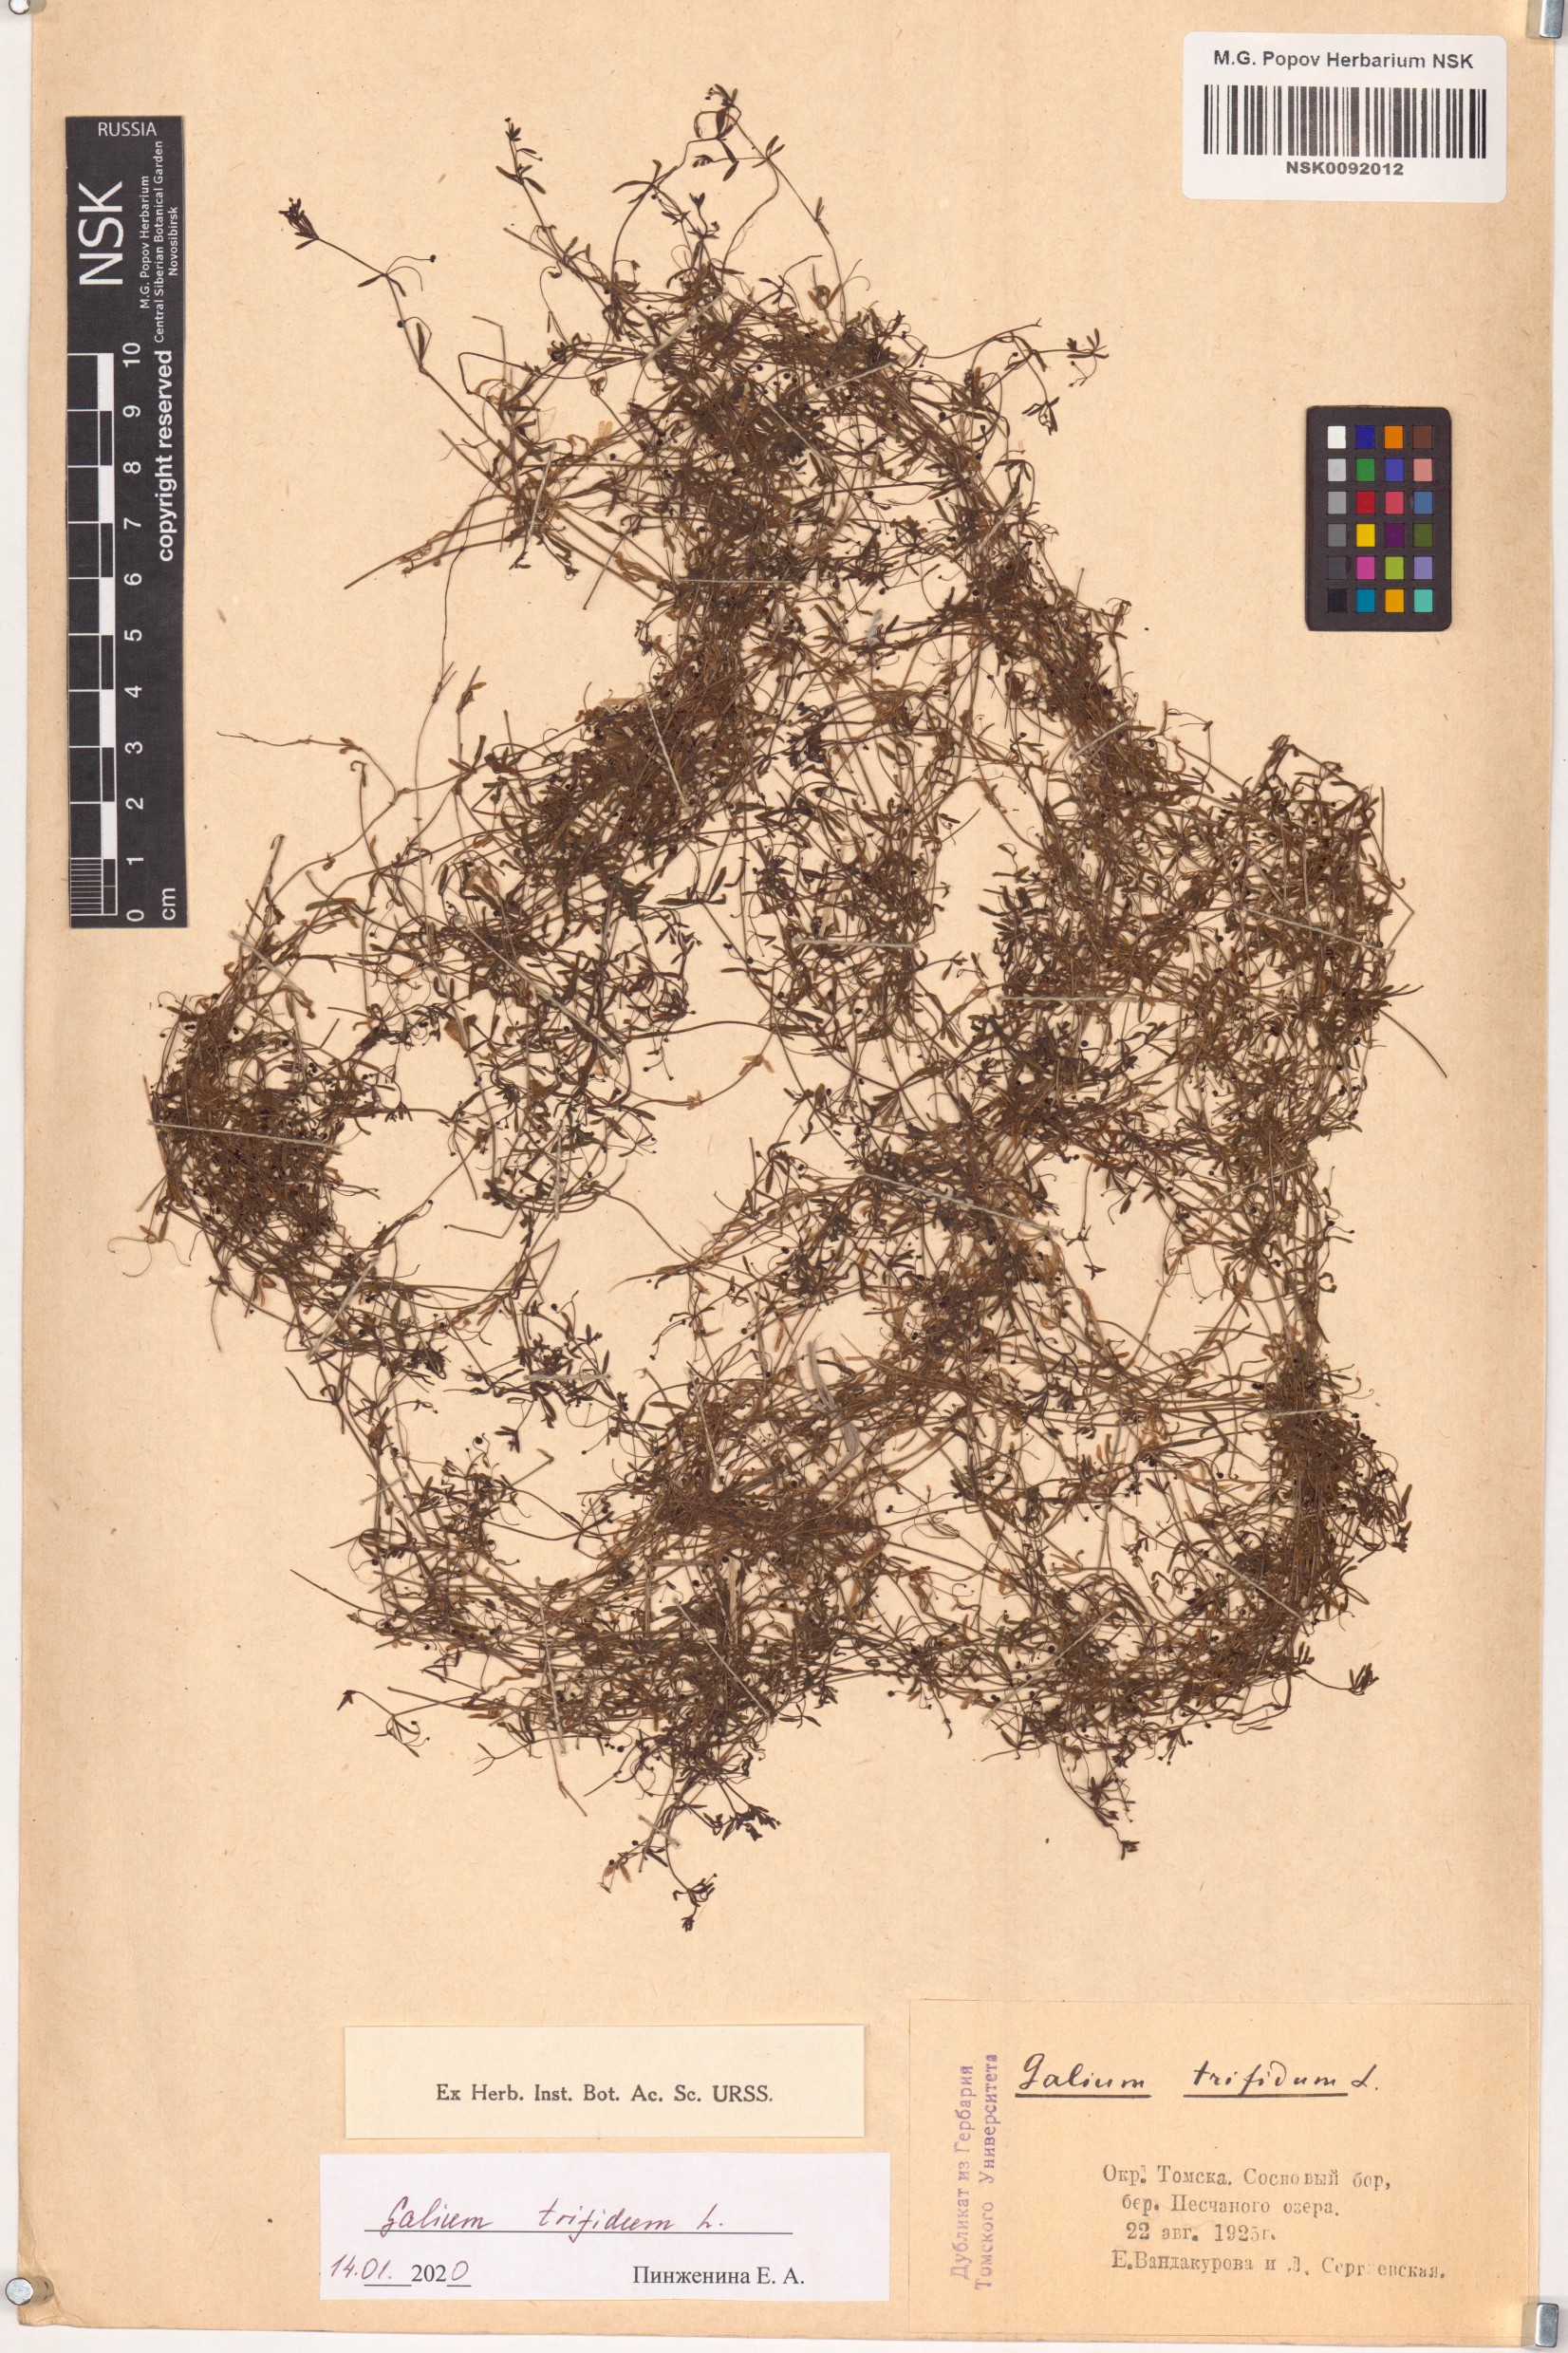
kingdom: Plantae
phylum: Tracheophyta
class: Magnoliopsida
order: Gentianales
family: Rubiaceae
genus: Galium
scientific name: Galium trifidum
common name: Small bedstraw
